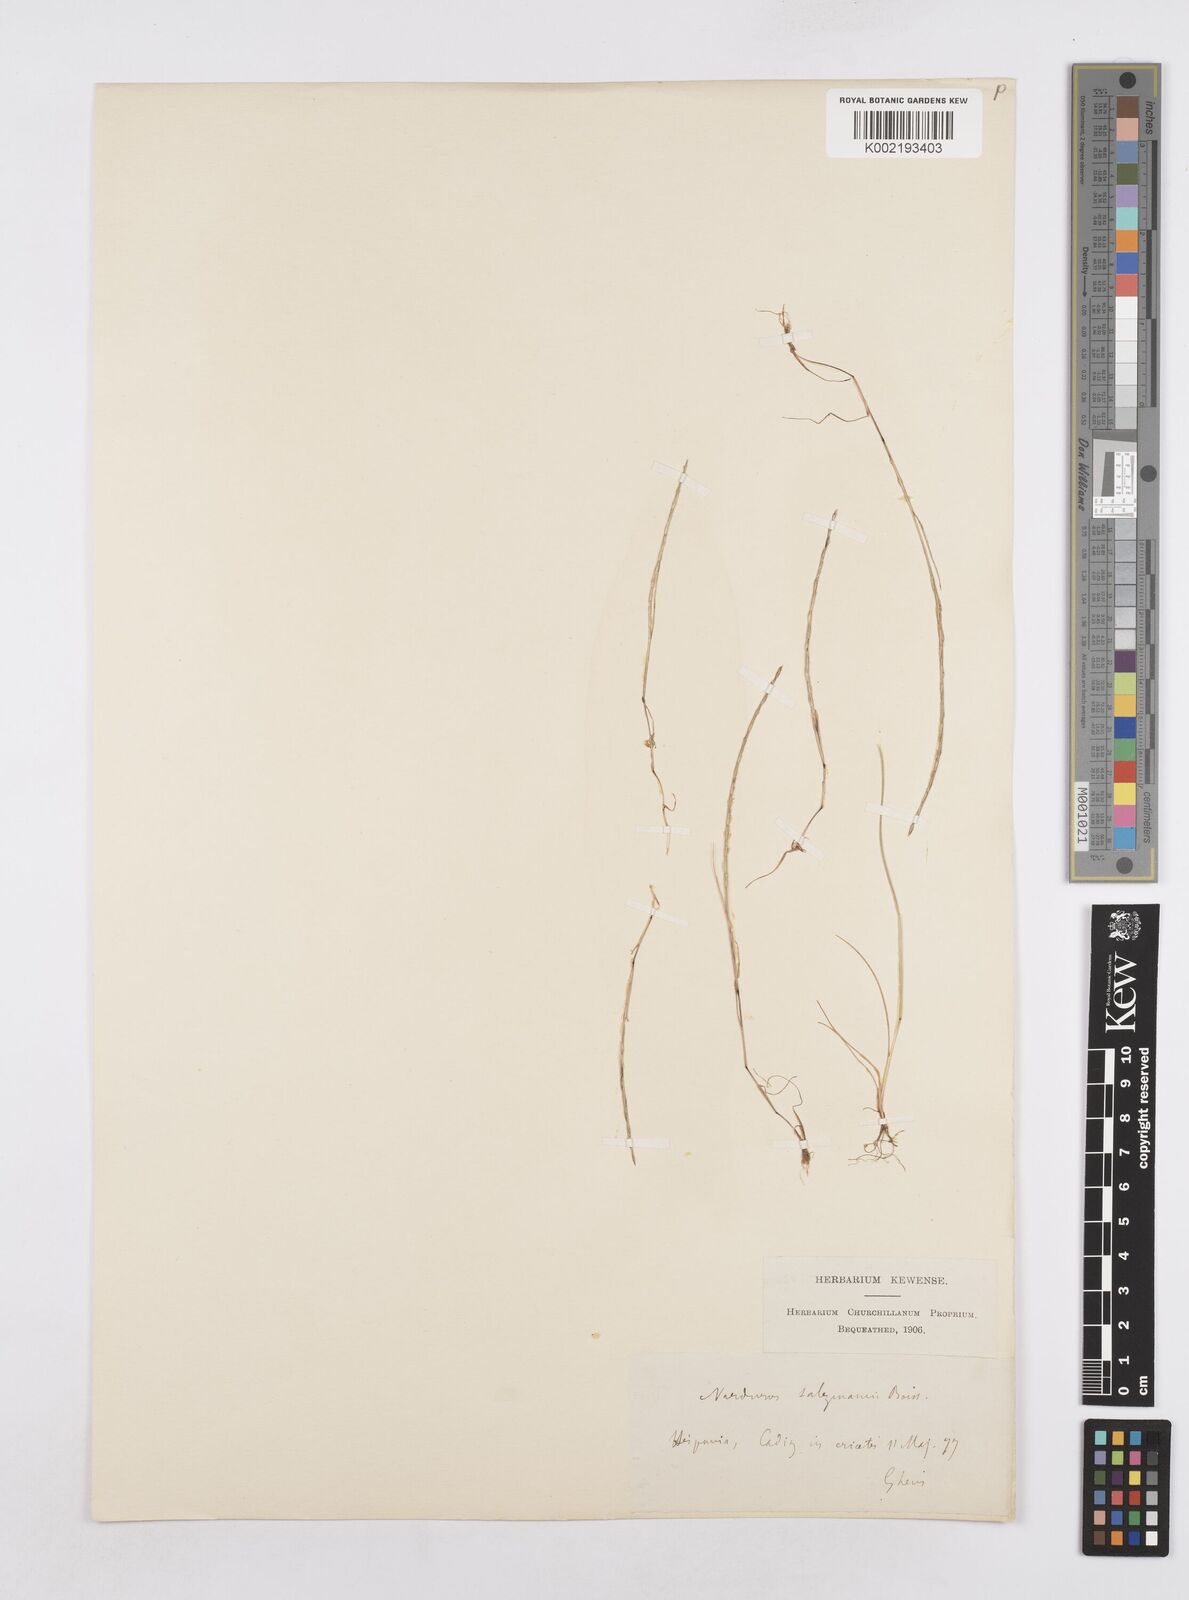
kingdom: Plantae
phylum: Tracheophyta
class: Liliopsida
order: Poales
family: Poaceae
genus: Festuca
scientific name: Festuca salzmannii
